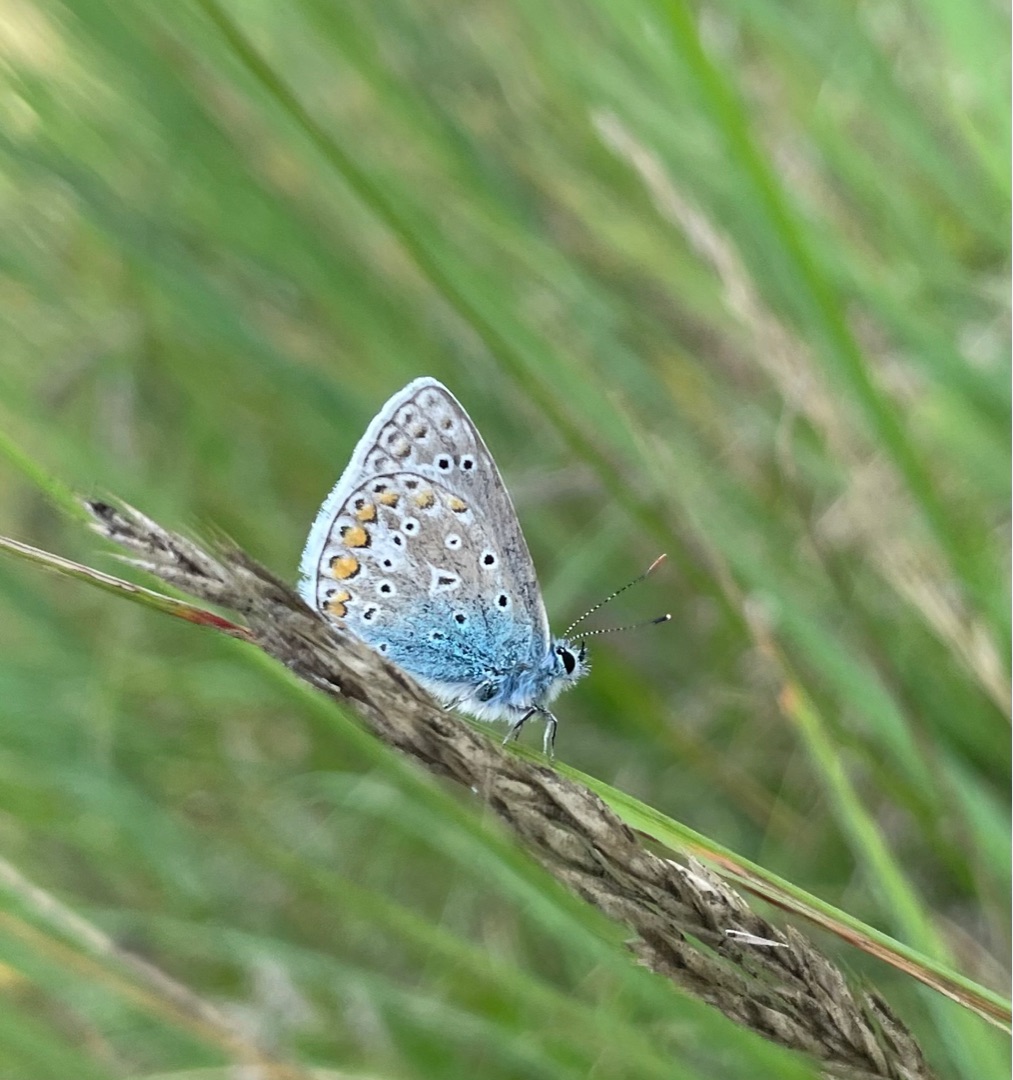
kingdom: Animalia
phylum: Arthropoda
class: Insecta
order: Lepidoptera
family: Lycaenidae
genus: Polyommatus
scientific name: Polyommatus icarus
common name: Almindelig blåfugl
